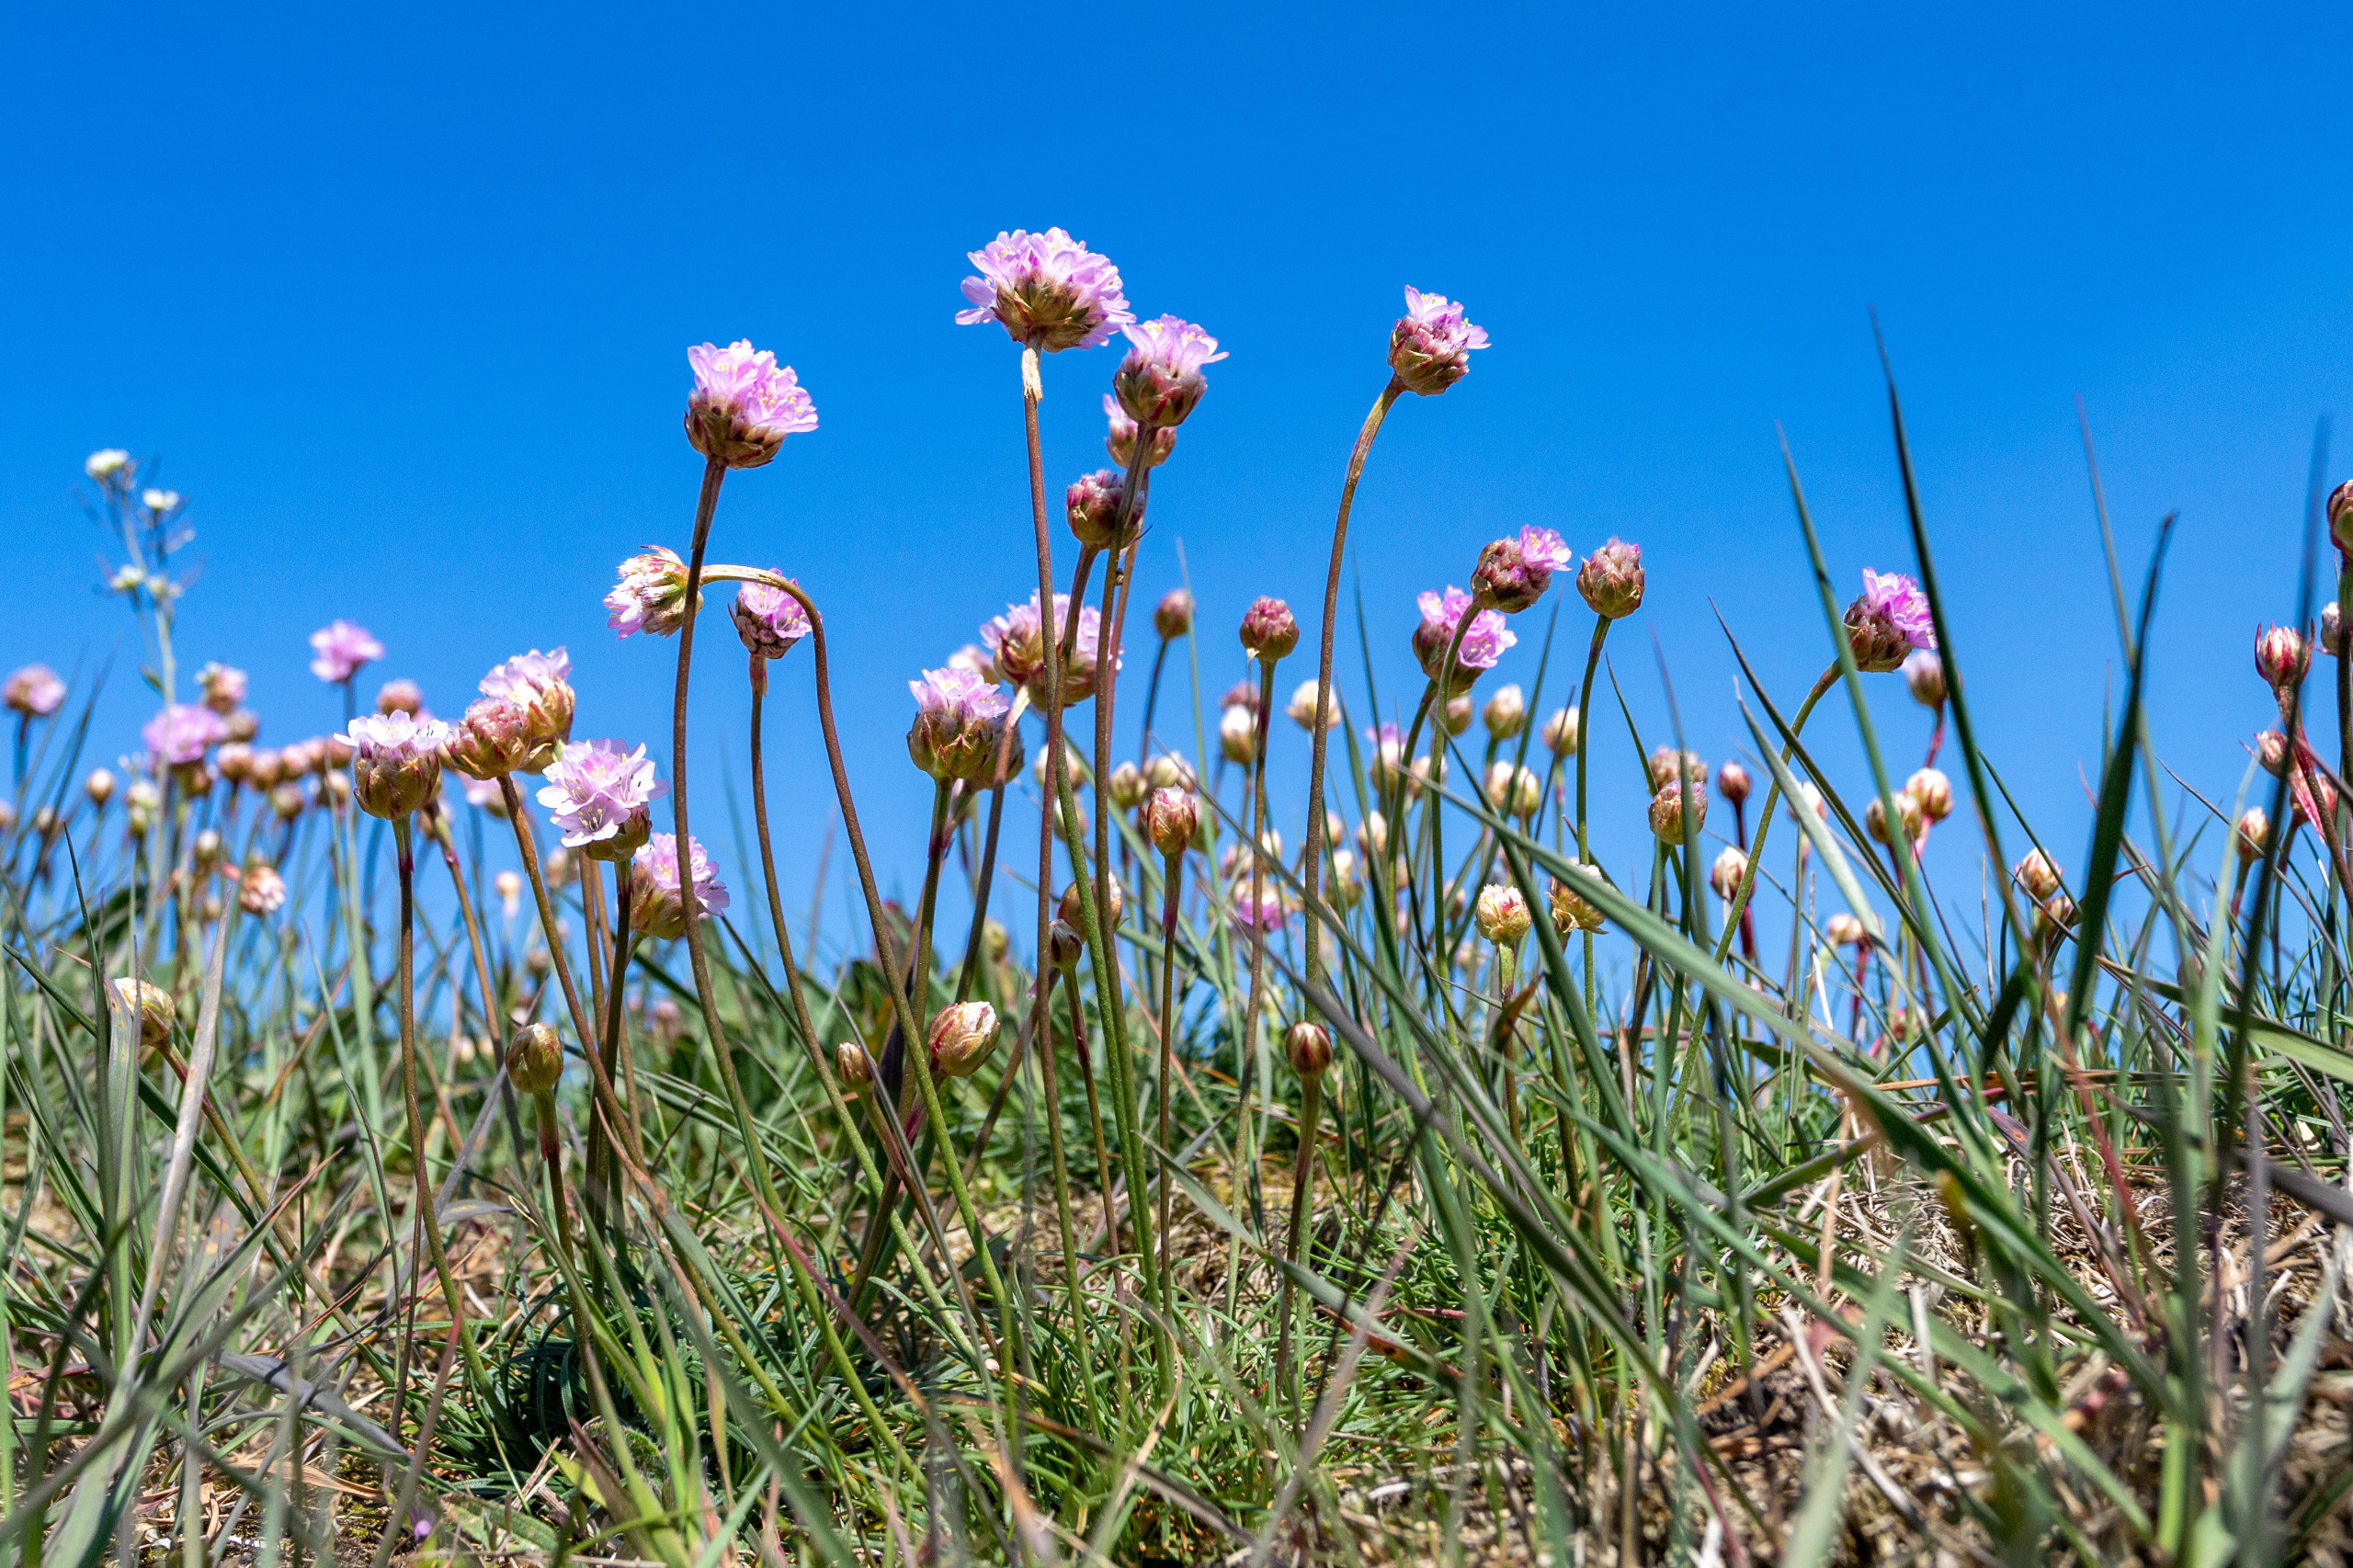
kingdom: Plantae
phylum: Tracheophyta
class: Magnoliopsida
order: Caryophyllales
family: Plumbaginaceae
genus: Armeria
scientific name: Armeria maritima
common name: Engelskgræs
